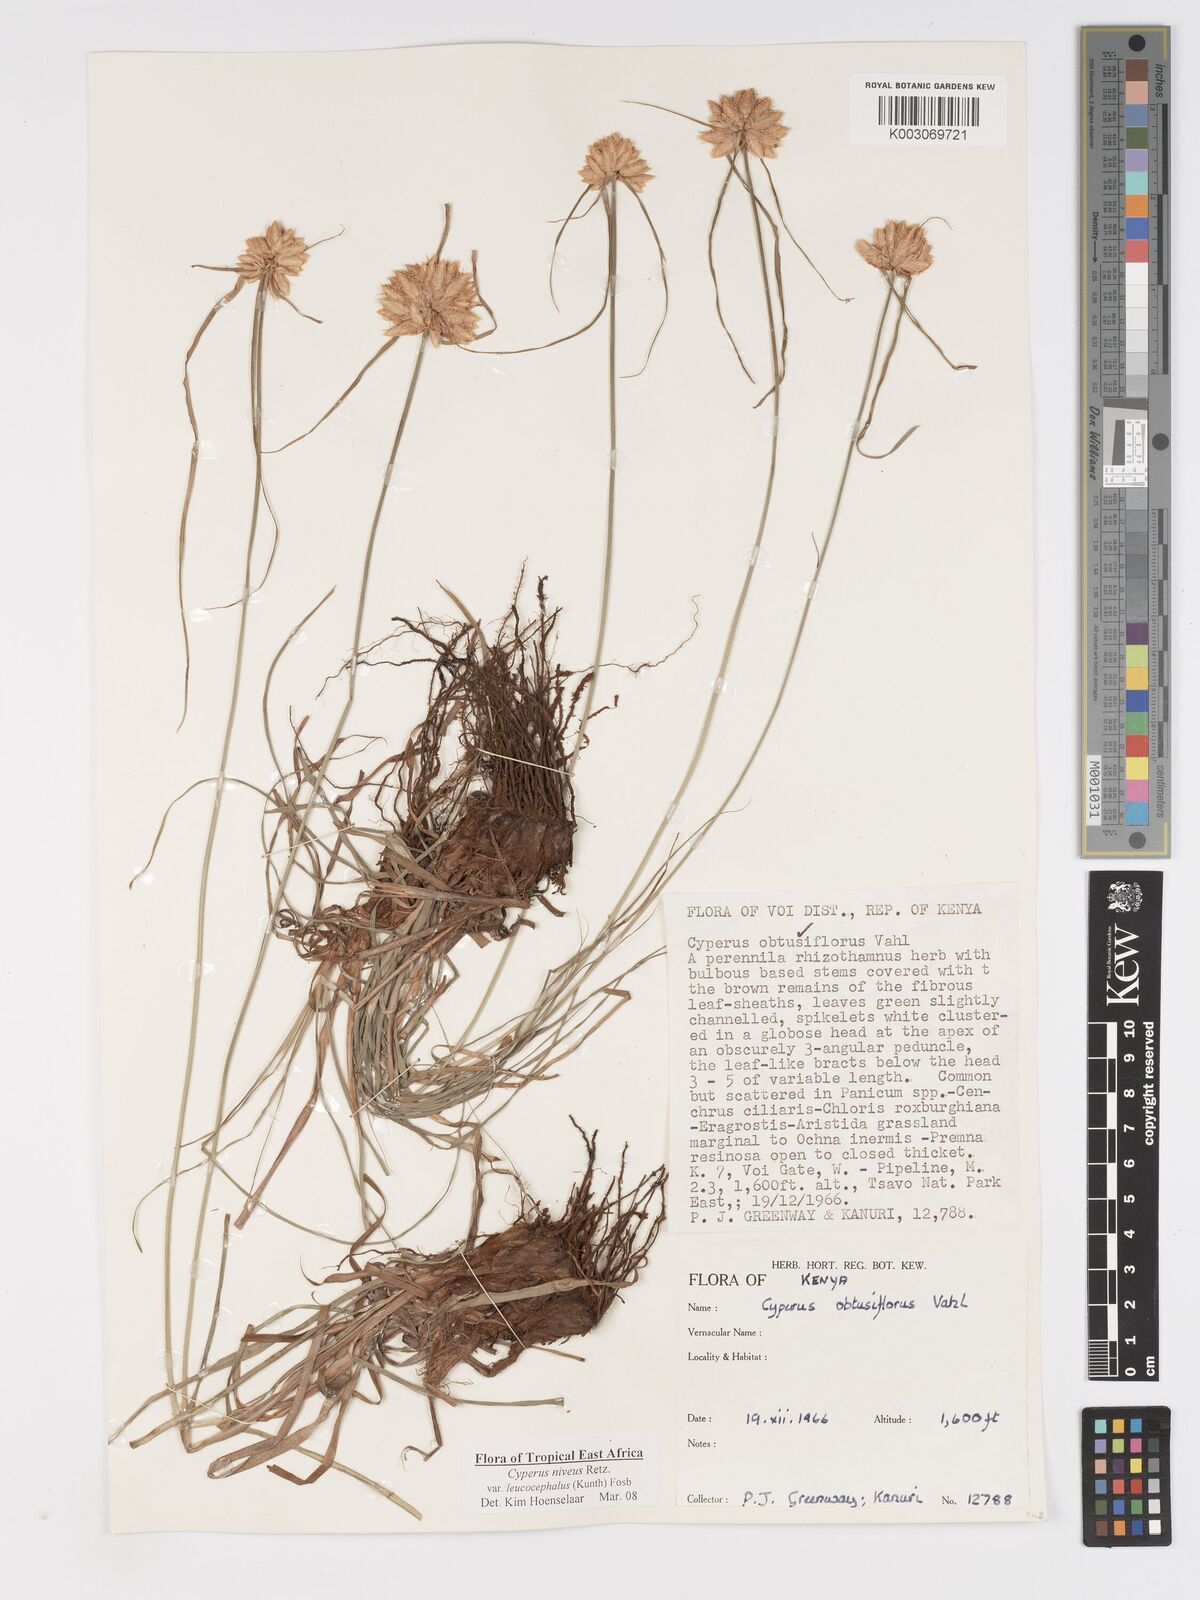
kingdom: Plantae
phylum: Tracheophyta
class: Liliopsida
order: Poales
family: Cyperaceae
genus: Cyperus
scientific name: Cyperus niveus
